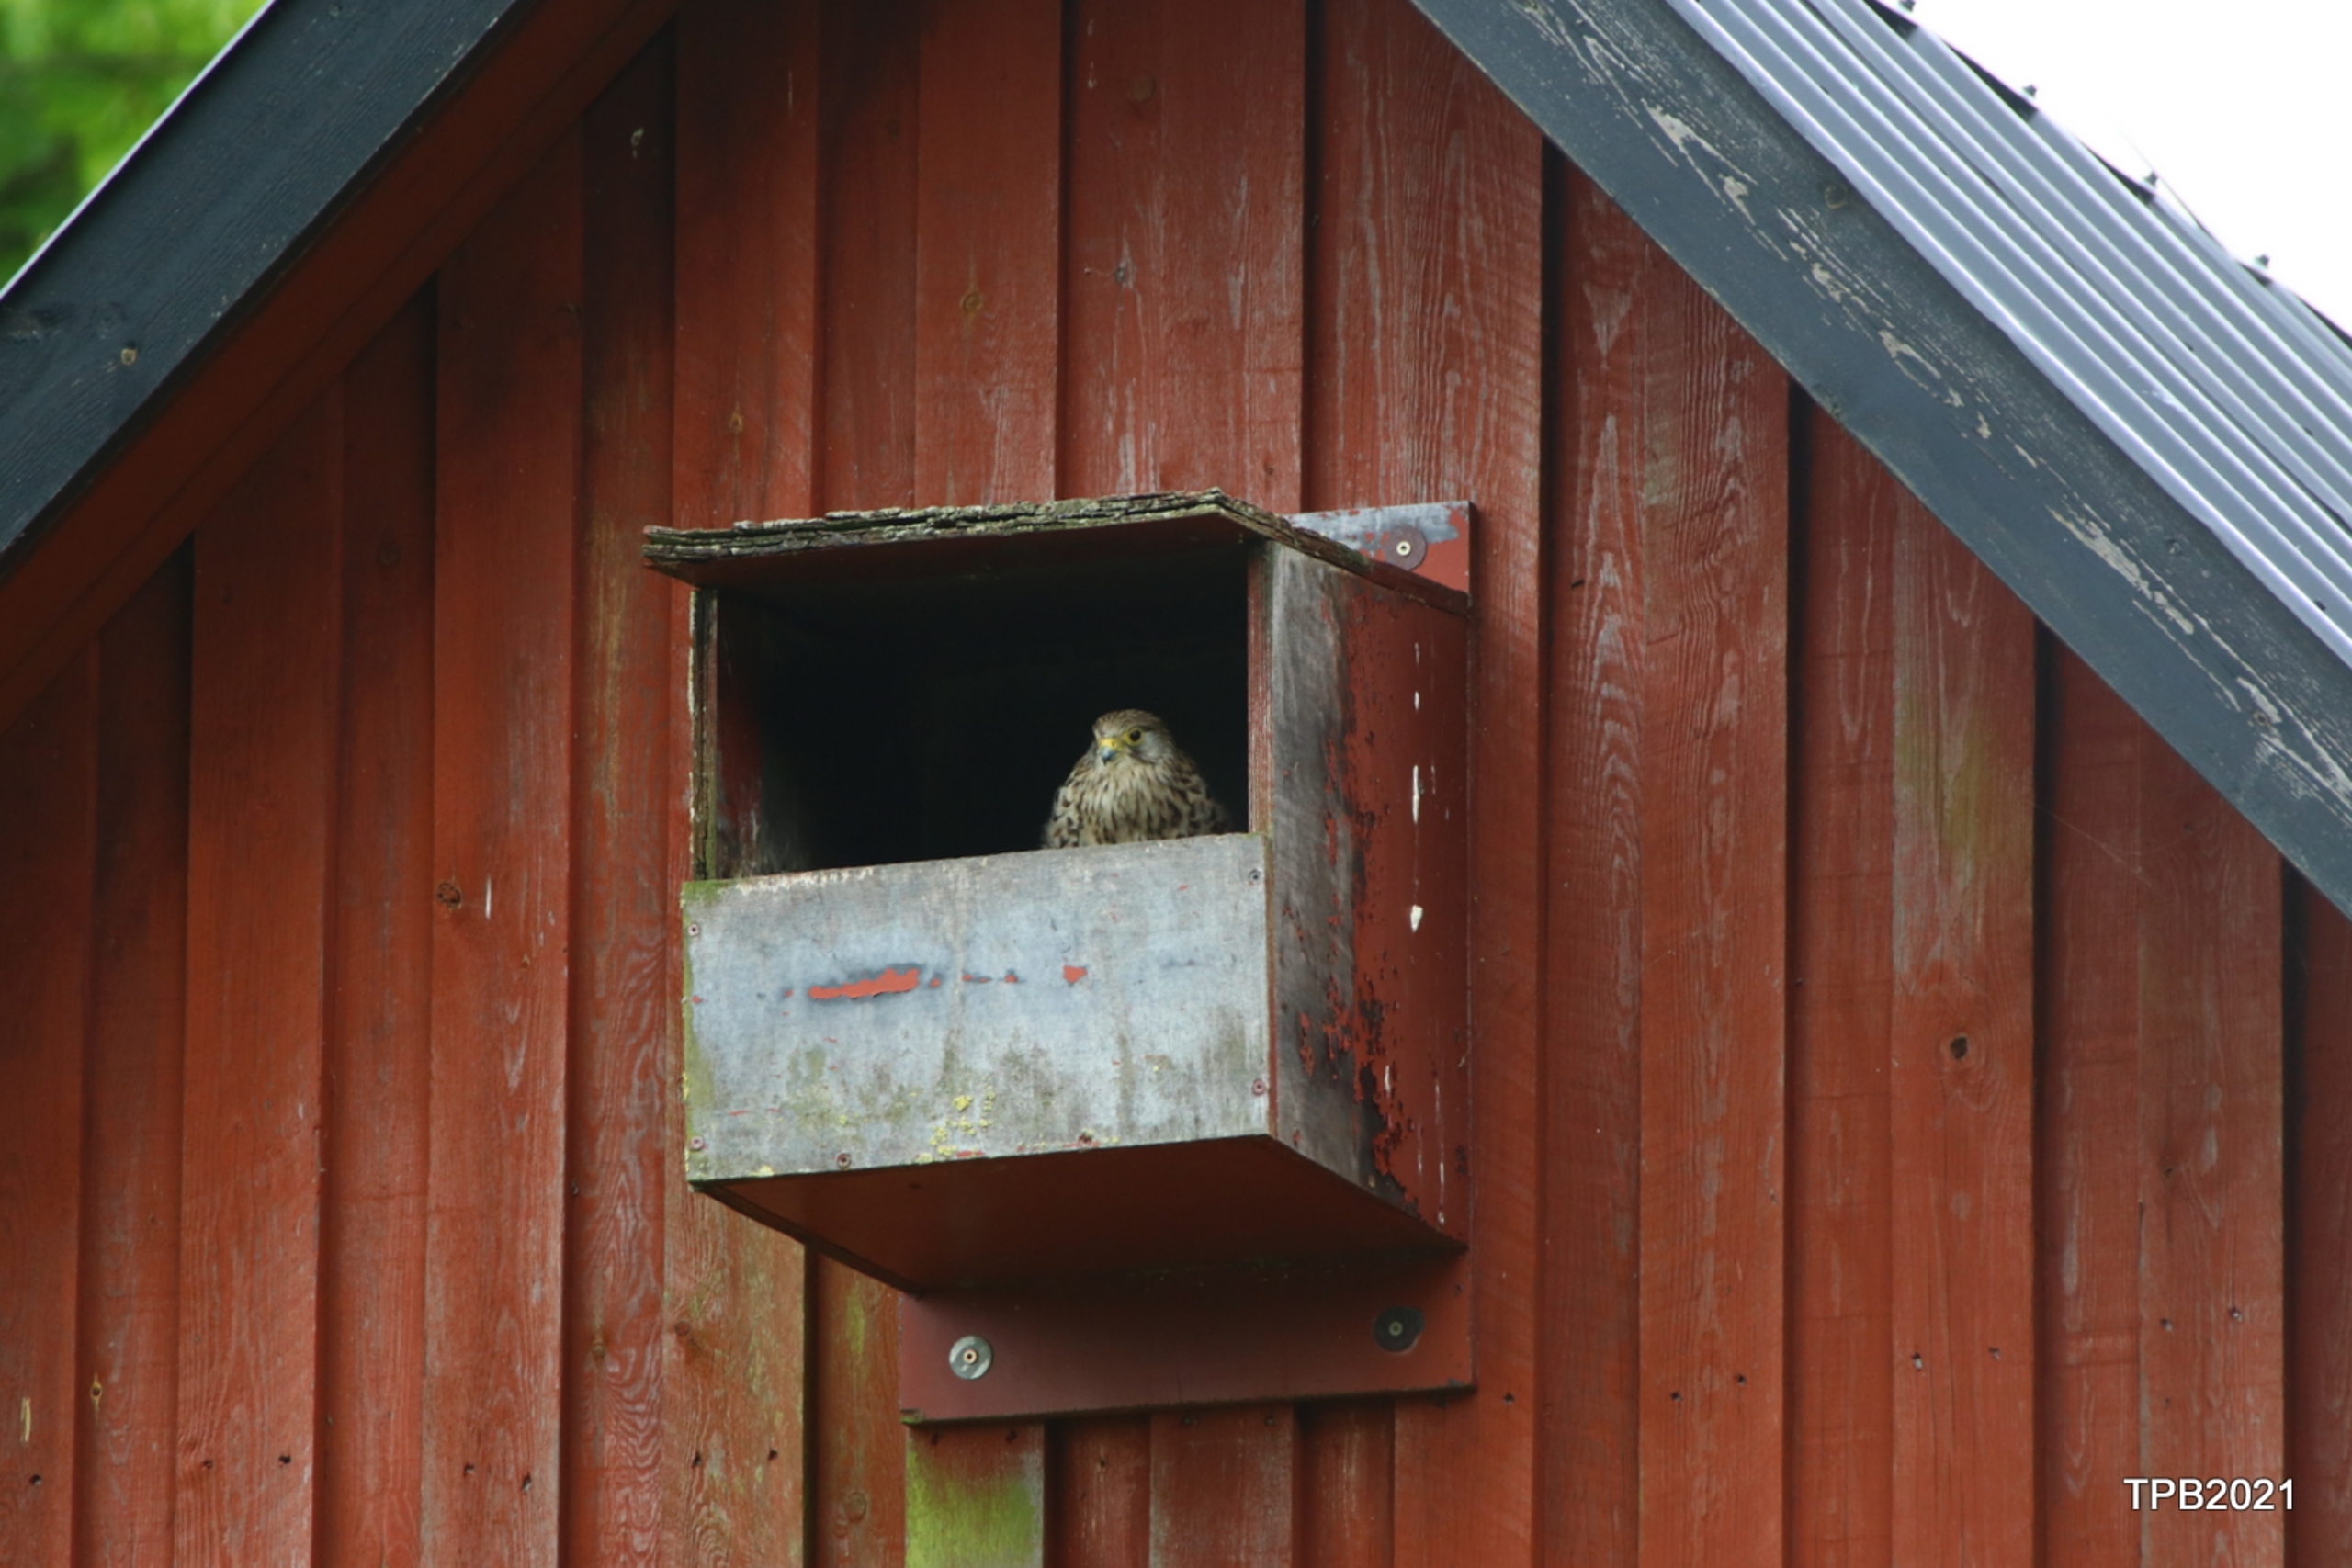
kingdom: Animalia
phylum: Chordata
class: Aves
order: Falconiformes
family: Falconidae
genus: Falco
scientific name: Falco tinnunculus
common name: Tårnfalk
